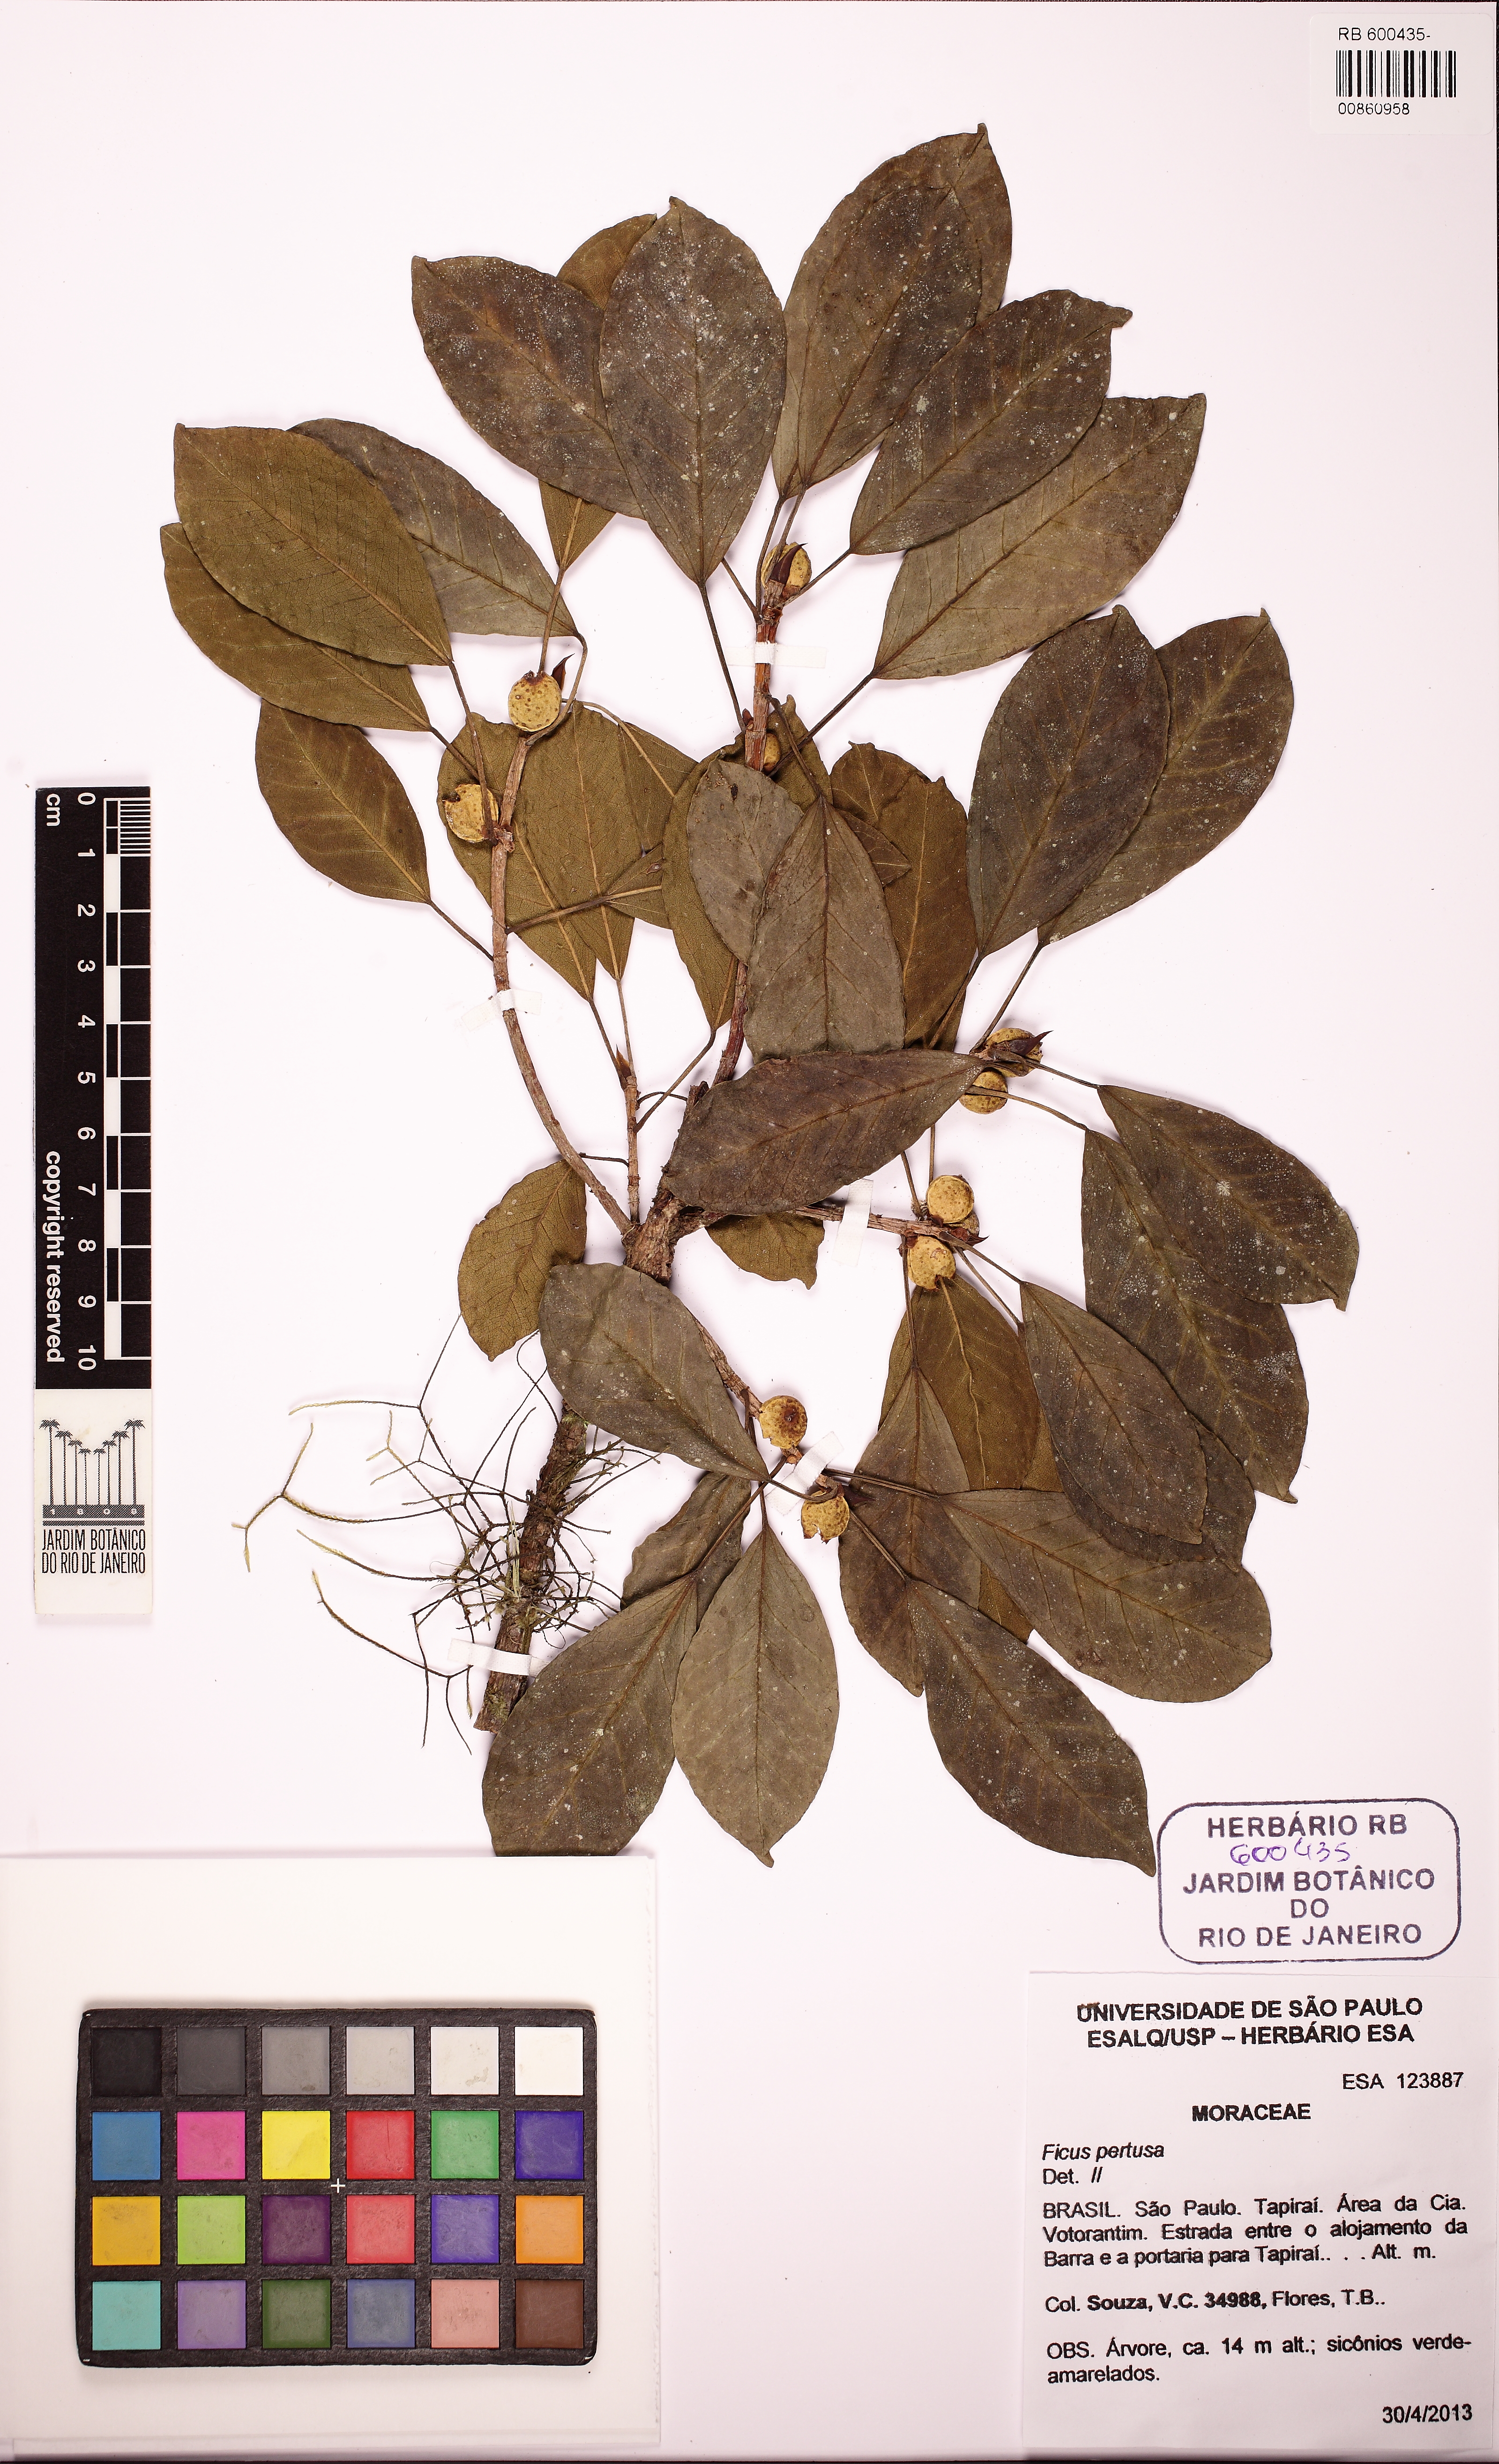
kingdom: Plantae
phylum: Tracheophyta
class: Magnoliopsida
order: Rosales
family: Moraceae
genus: Ficus
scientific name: Ficus luschnathiana
